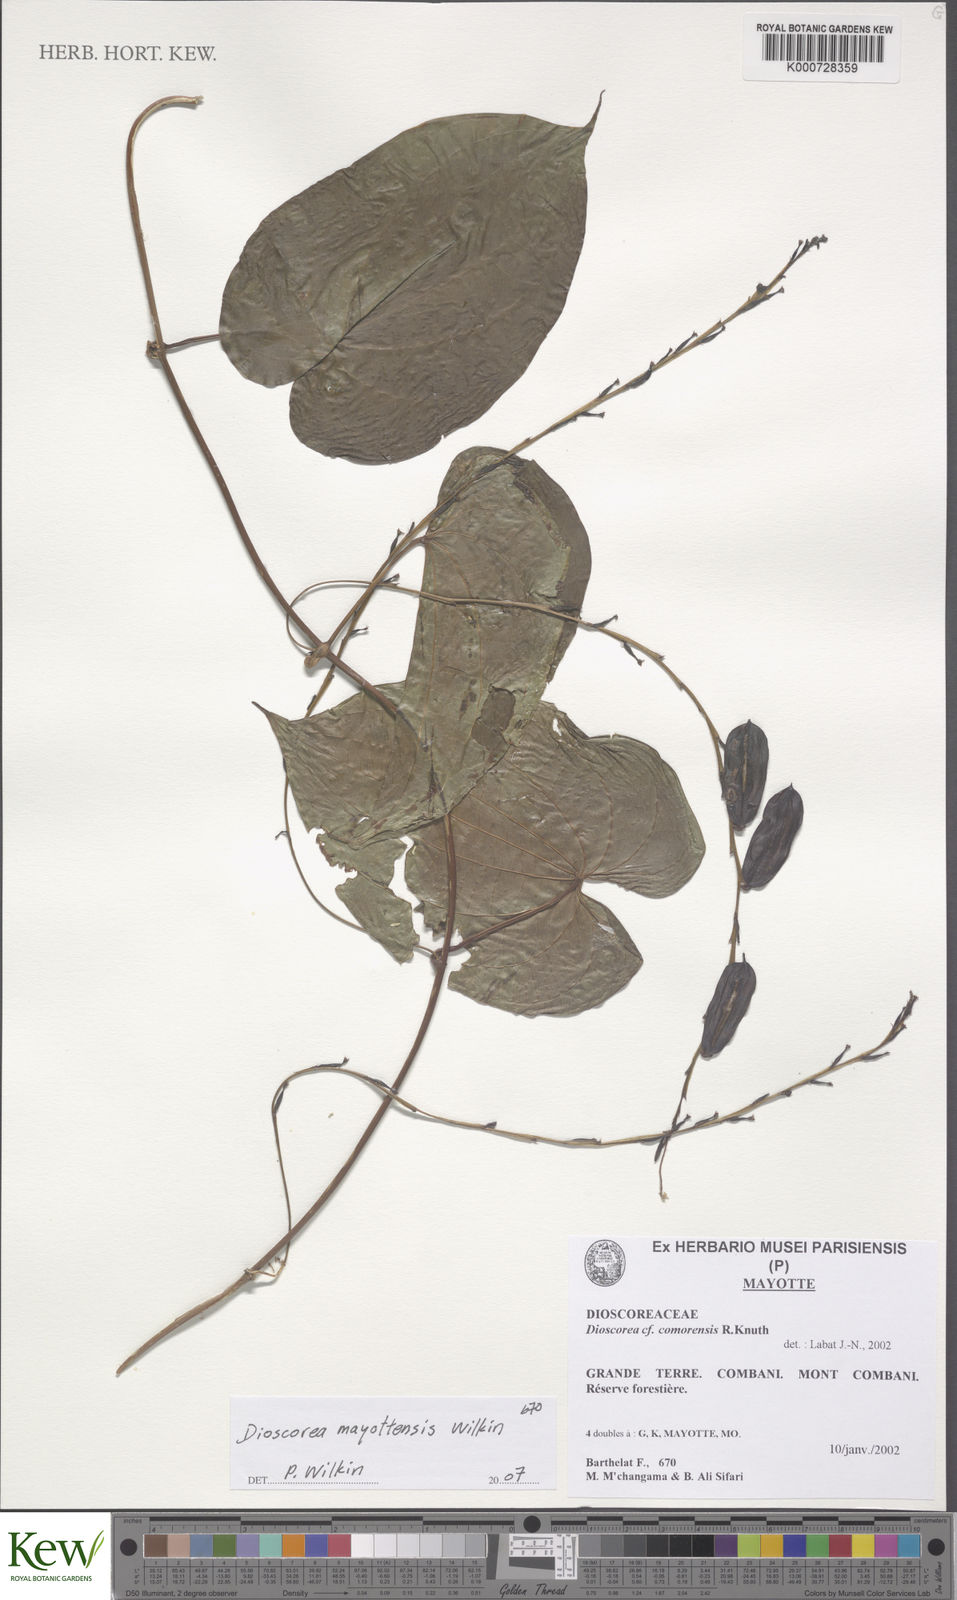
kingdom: Plantae
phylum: Tracheophyta
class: Liliopsida
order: Dioscoreales
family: Dioscoreaceae
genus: Dioscorea
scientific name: Dioscorea mayottensis
